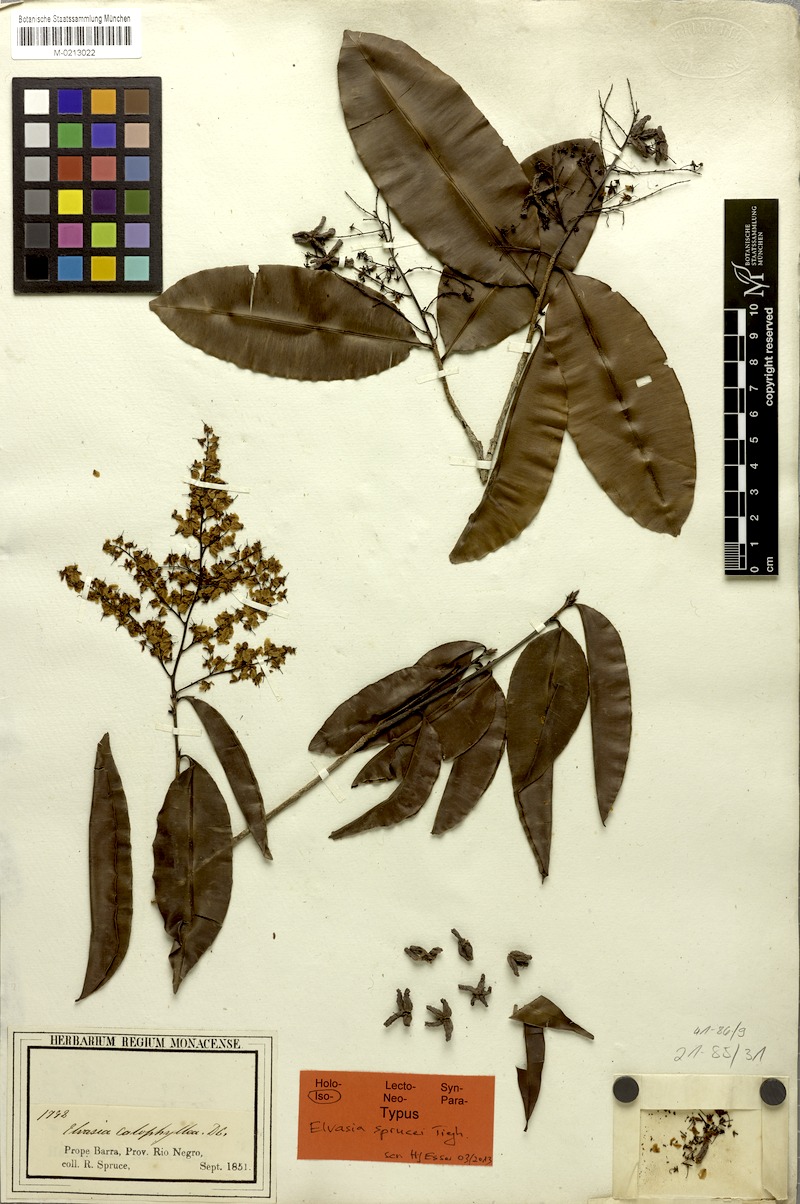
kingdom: Plantae
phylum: Tracheophyta
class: Magnoliopsida
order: Malpighiales
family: Ochnaceae
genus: Elvasia
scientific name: Elvasia calophyllea
